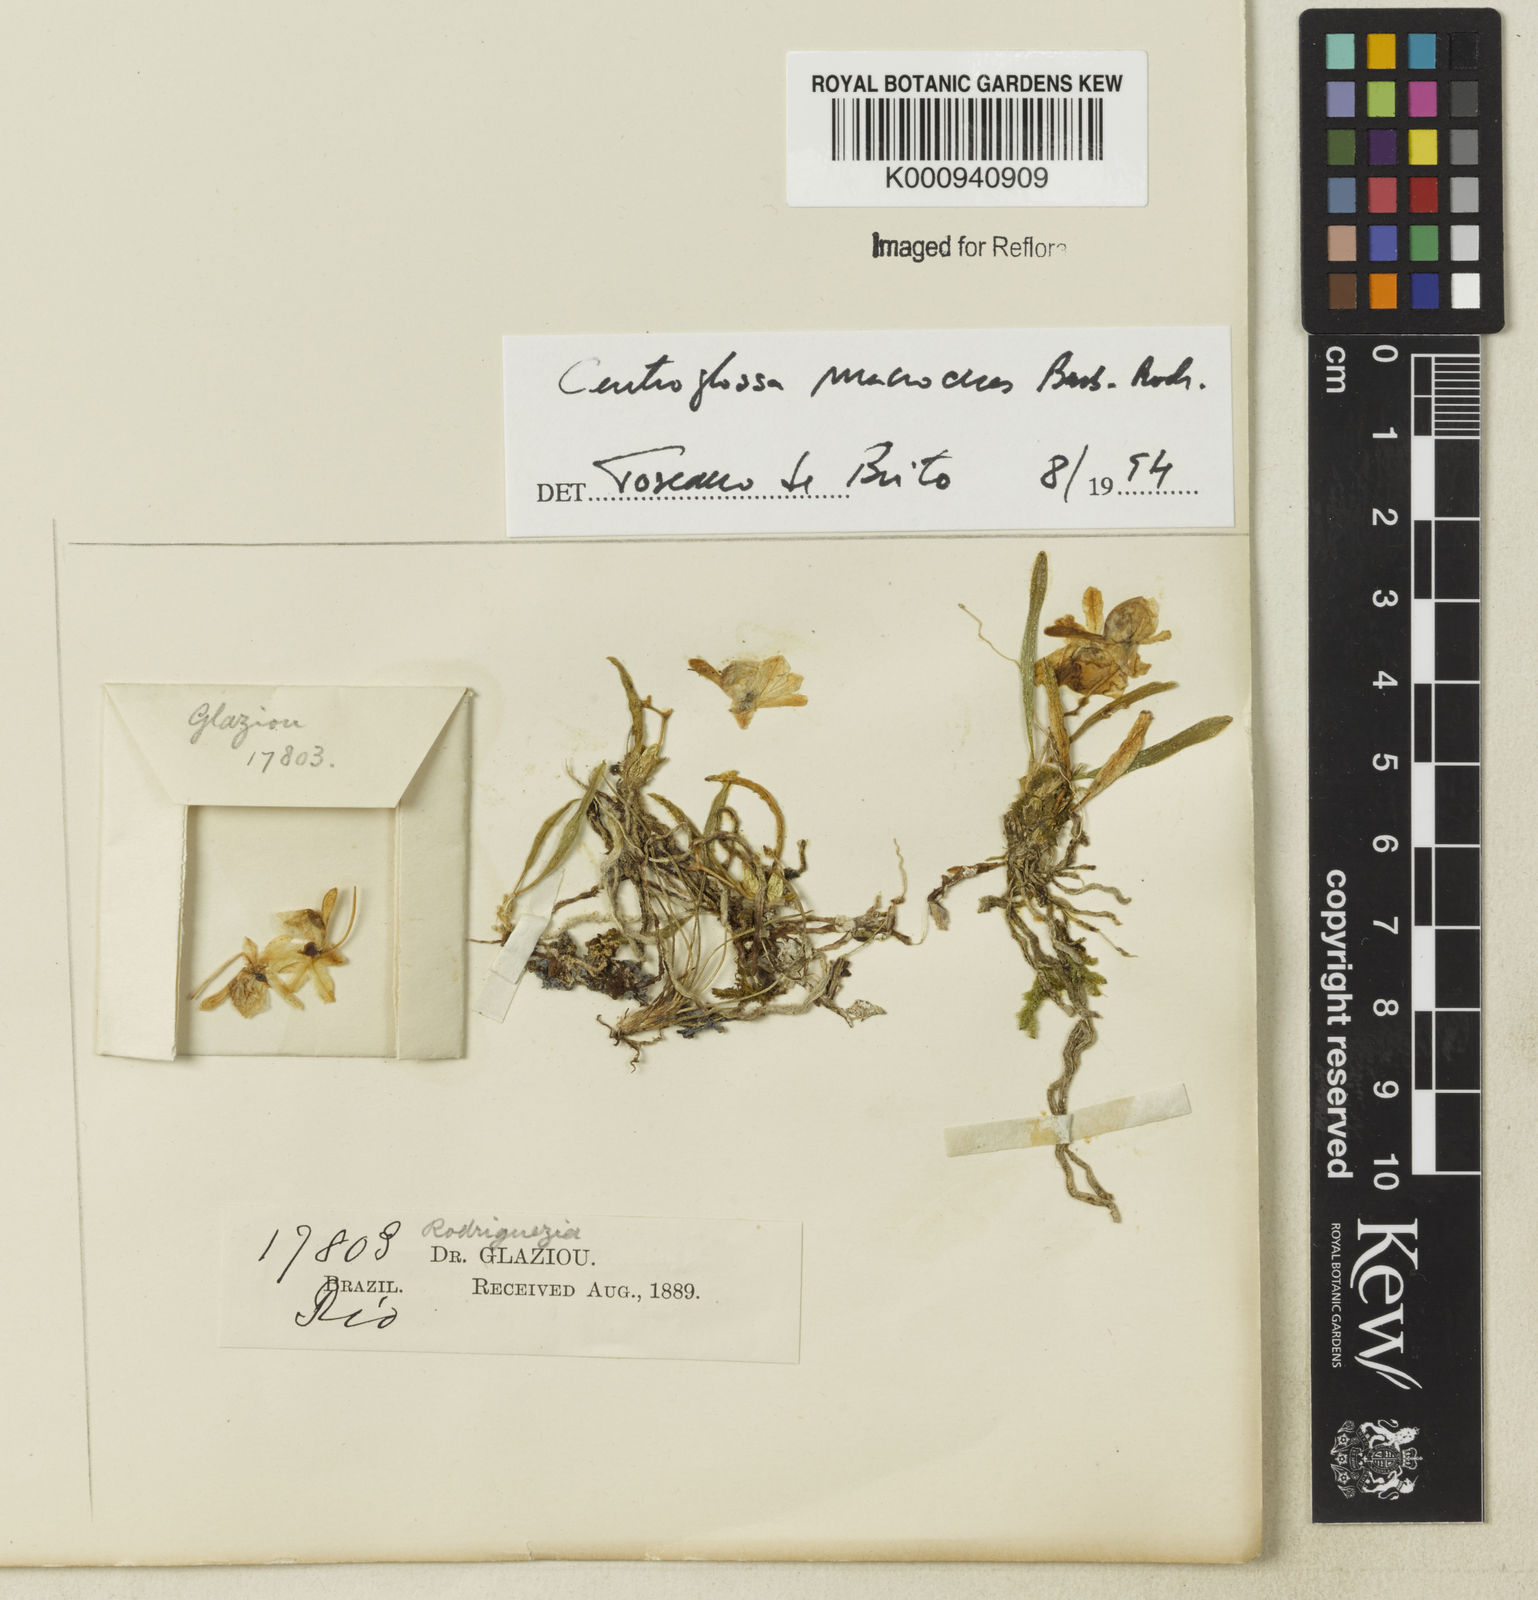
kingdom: Plantae
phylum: Tracheophyta
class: Liliopsida
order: Asparagales
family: Orchidaceae
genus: Centroglossa
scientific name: Centroglossa
